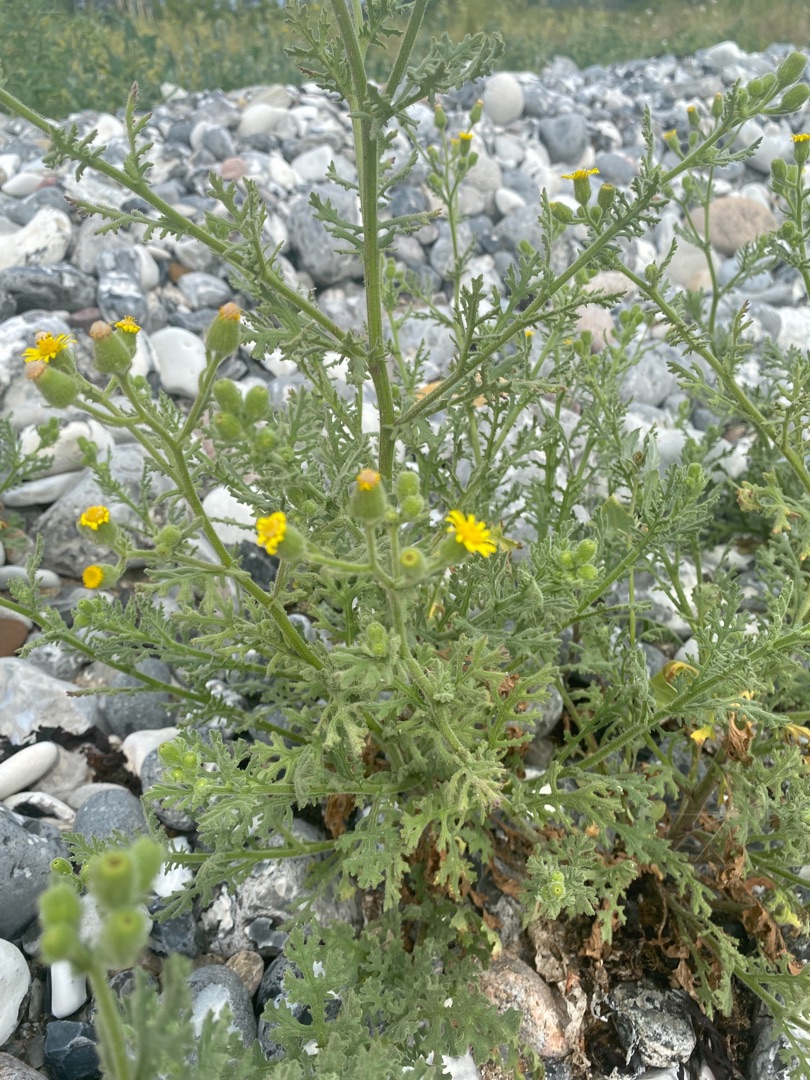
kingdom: Plantae
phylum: Tracheophyta
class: Magnoliopsida
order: Asterales
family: Asteraceae
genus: Senecio
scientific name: Senecio viscosus
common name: Klæbrig brandbæger
